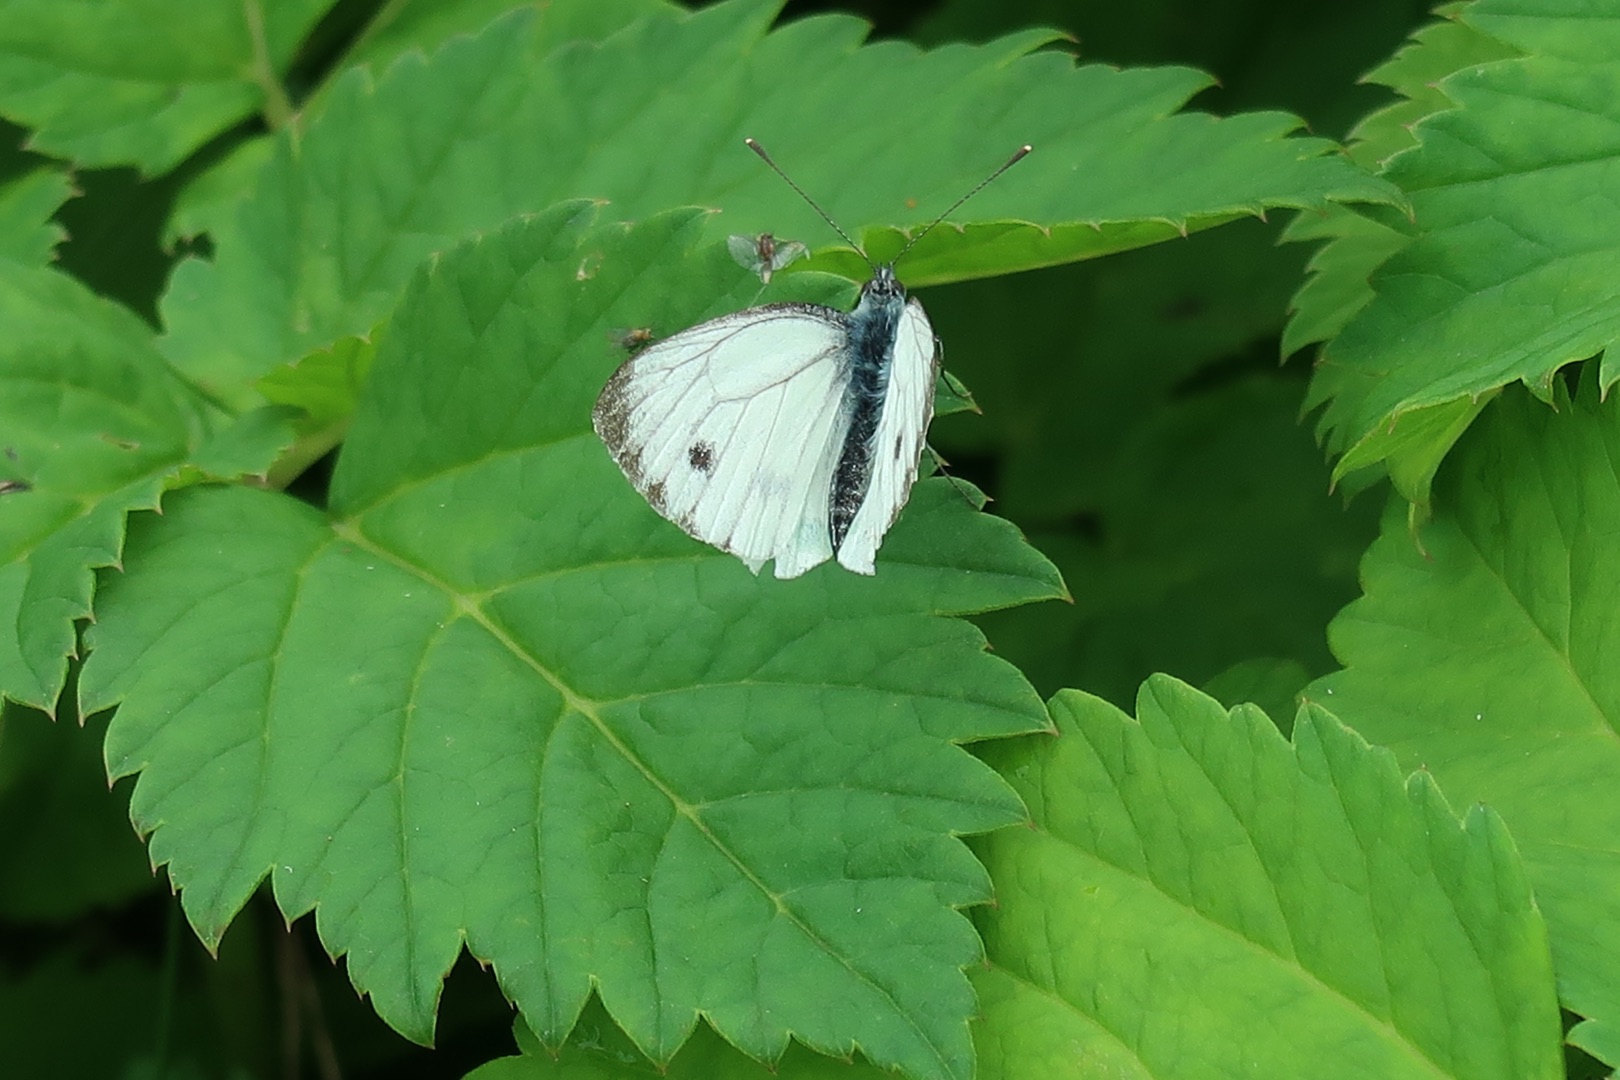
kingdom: Animalia
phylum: Arthropoda
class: Insecta
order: Lepidoptera
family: Pieridae
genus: Pieris
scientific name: Pieris napi
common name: Grønåret kålsommerfugl
